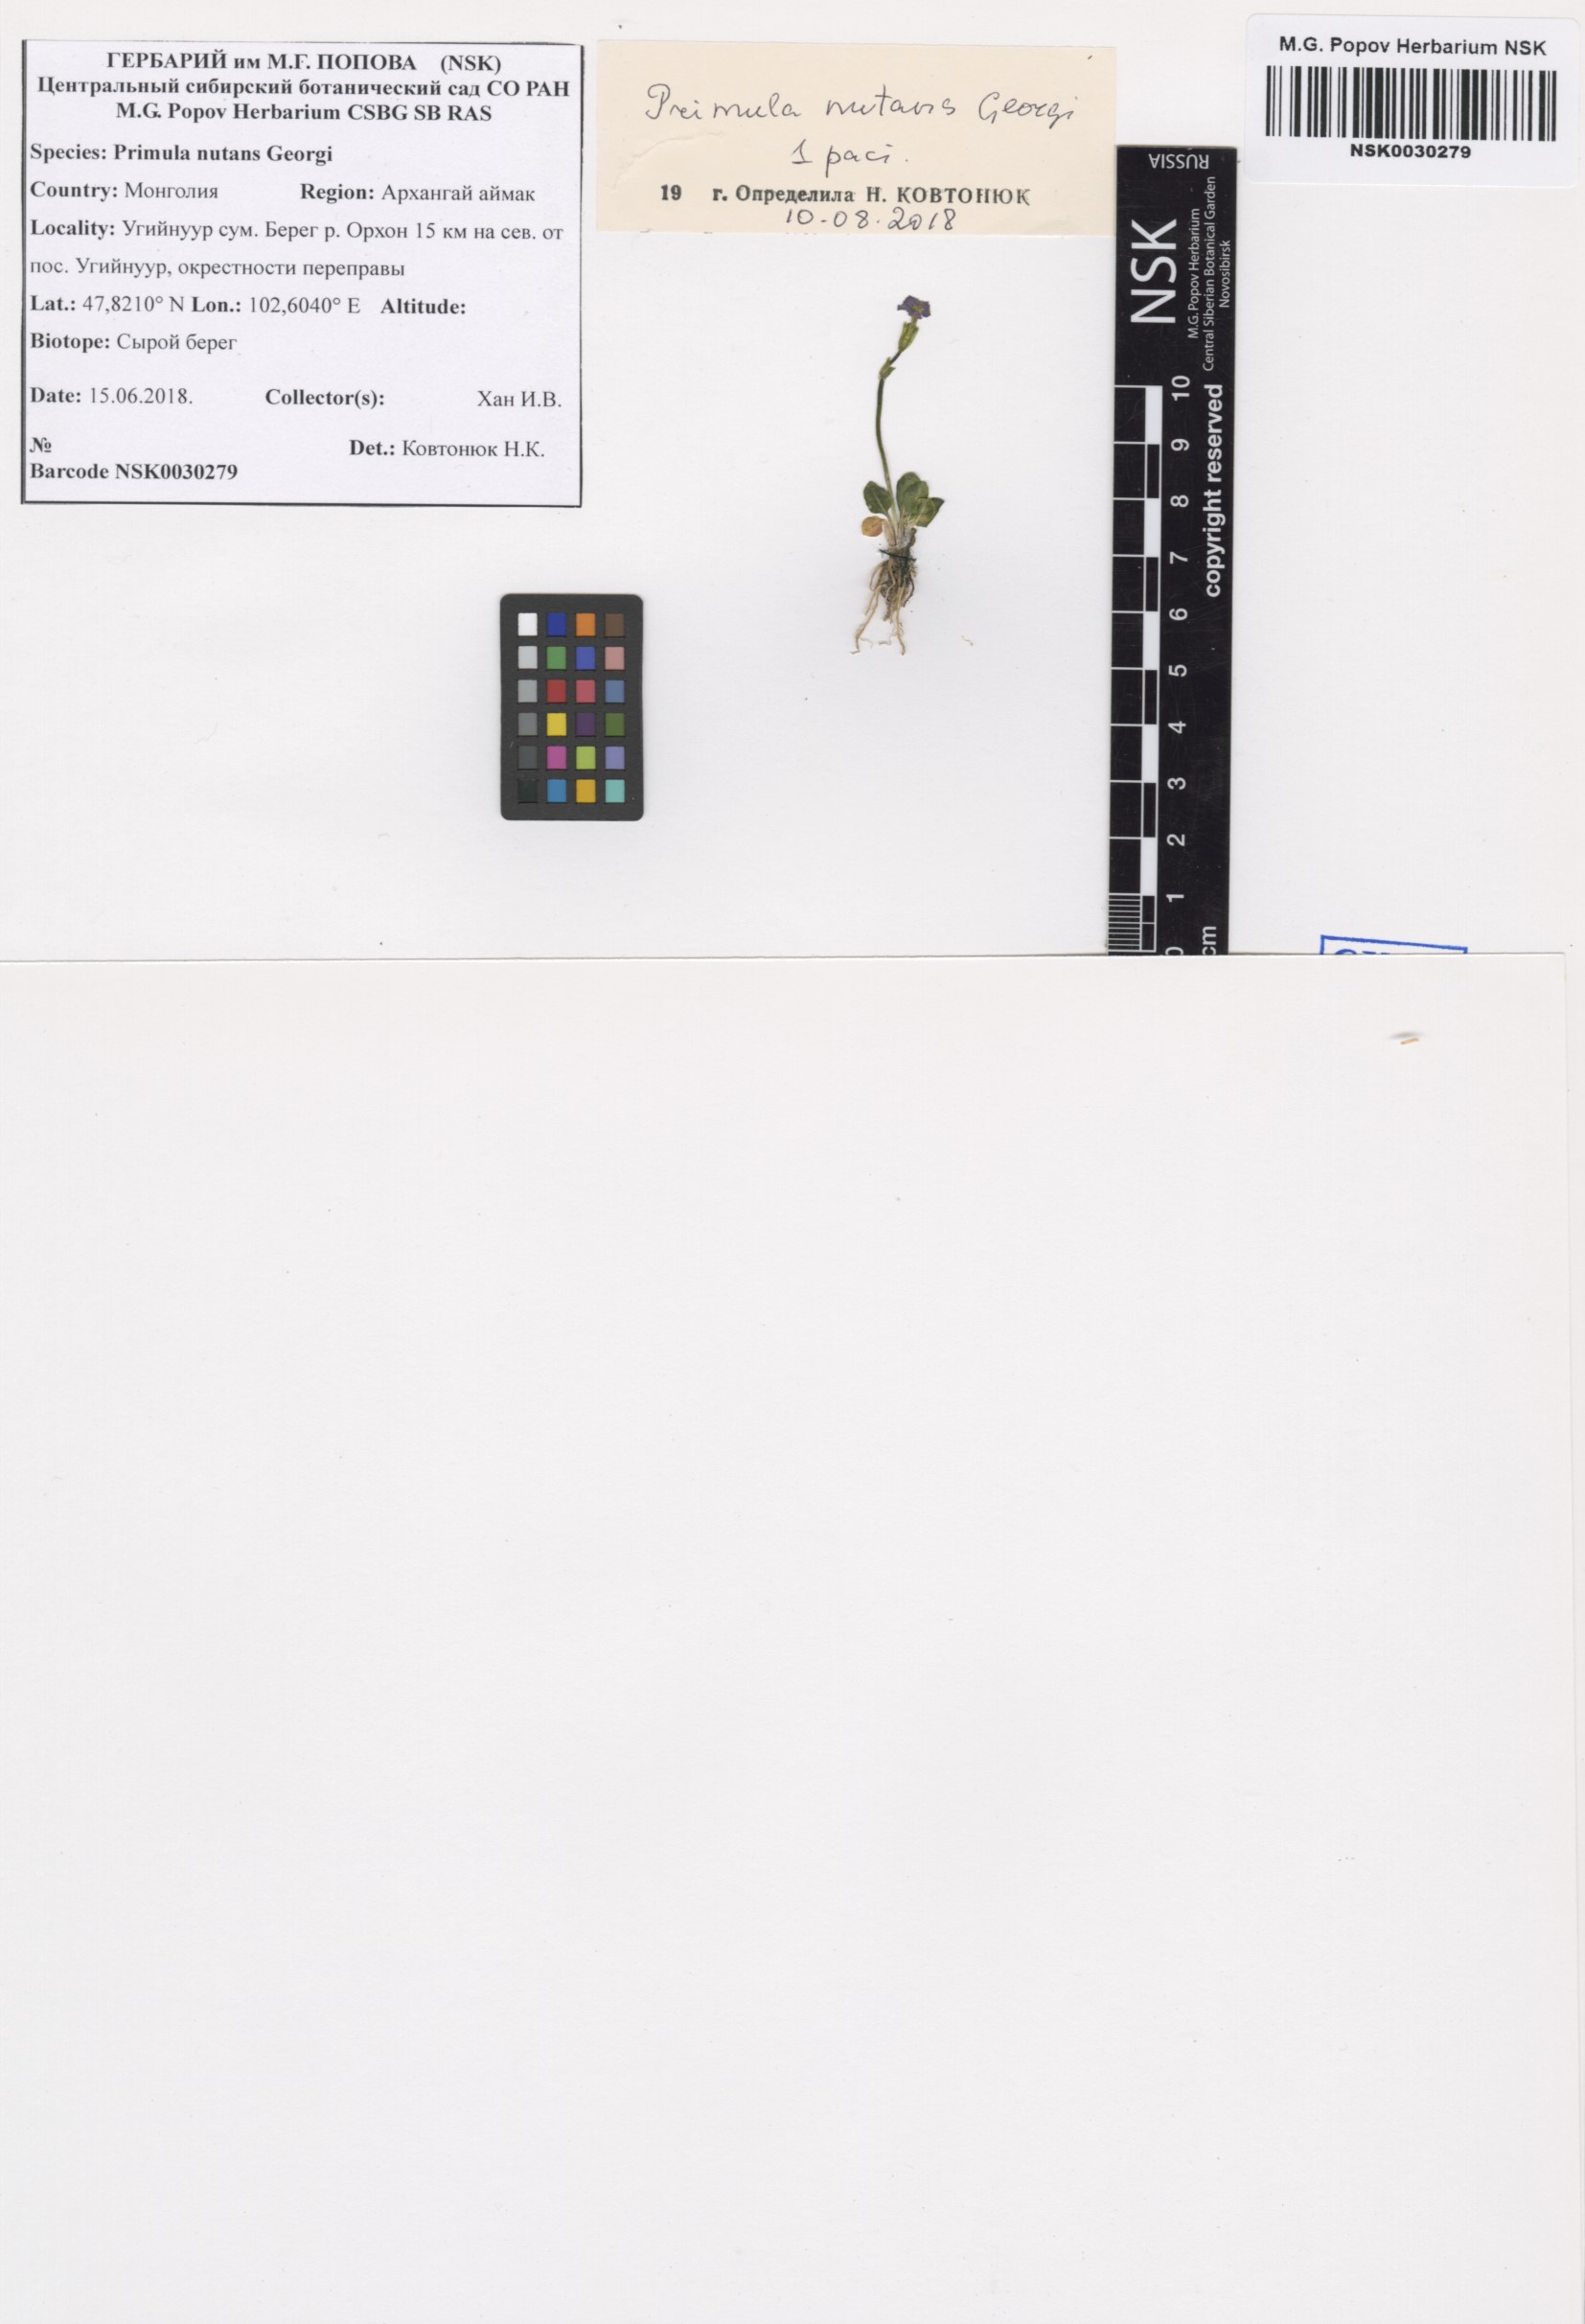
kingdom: Plantae
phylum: Tracheophyta
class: Magnoliopsida
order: Ericales
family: Primulaceae
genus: Primula
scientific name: Primula nutans
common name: Siberian primrose
